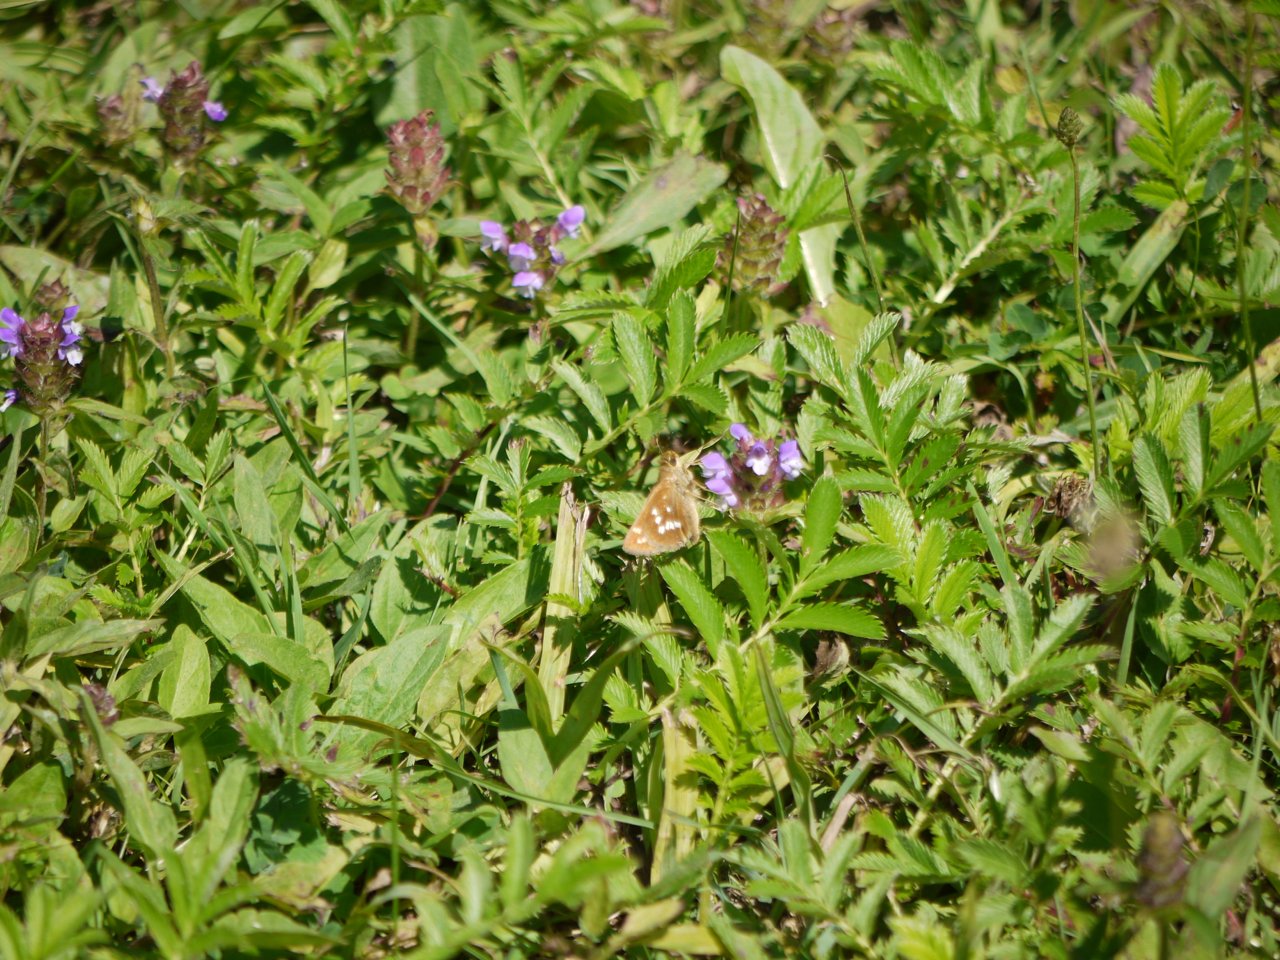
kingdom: Animalia
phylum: Arthropoda
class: Insecta
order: Lepidoptera
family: Hesperiidae
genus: Hesperia
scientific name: Hesperia leonardus
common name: Leonard's Skipper
